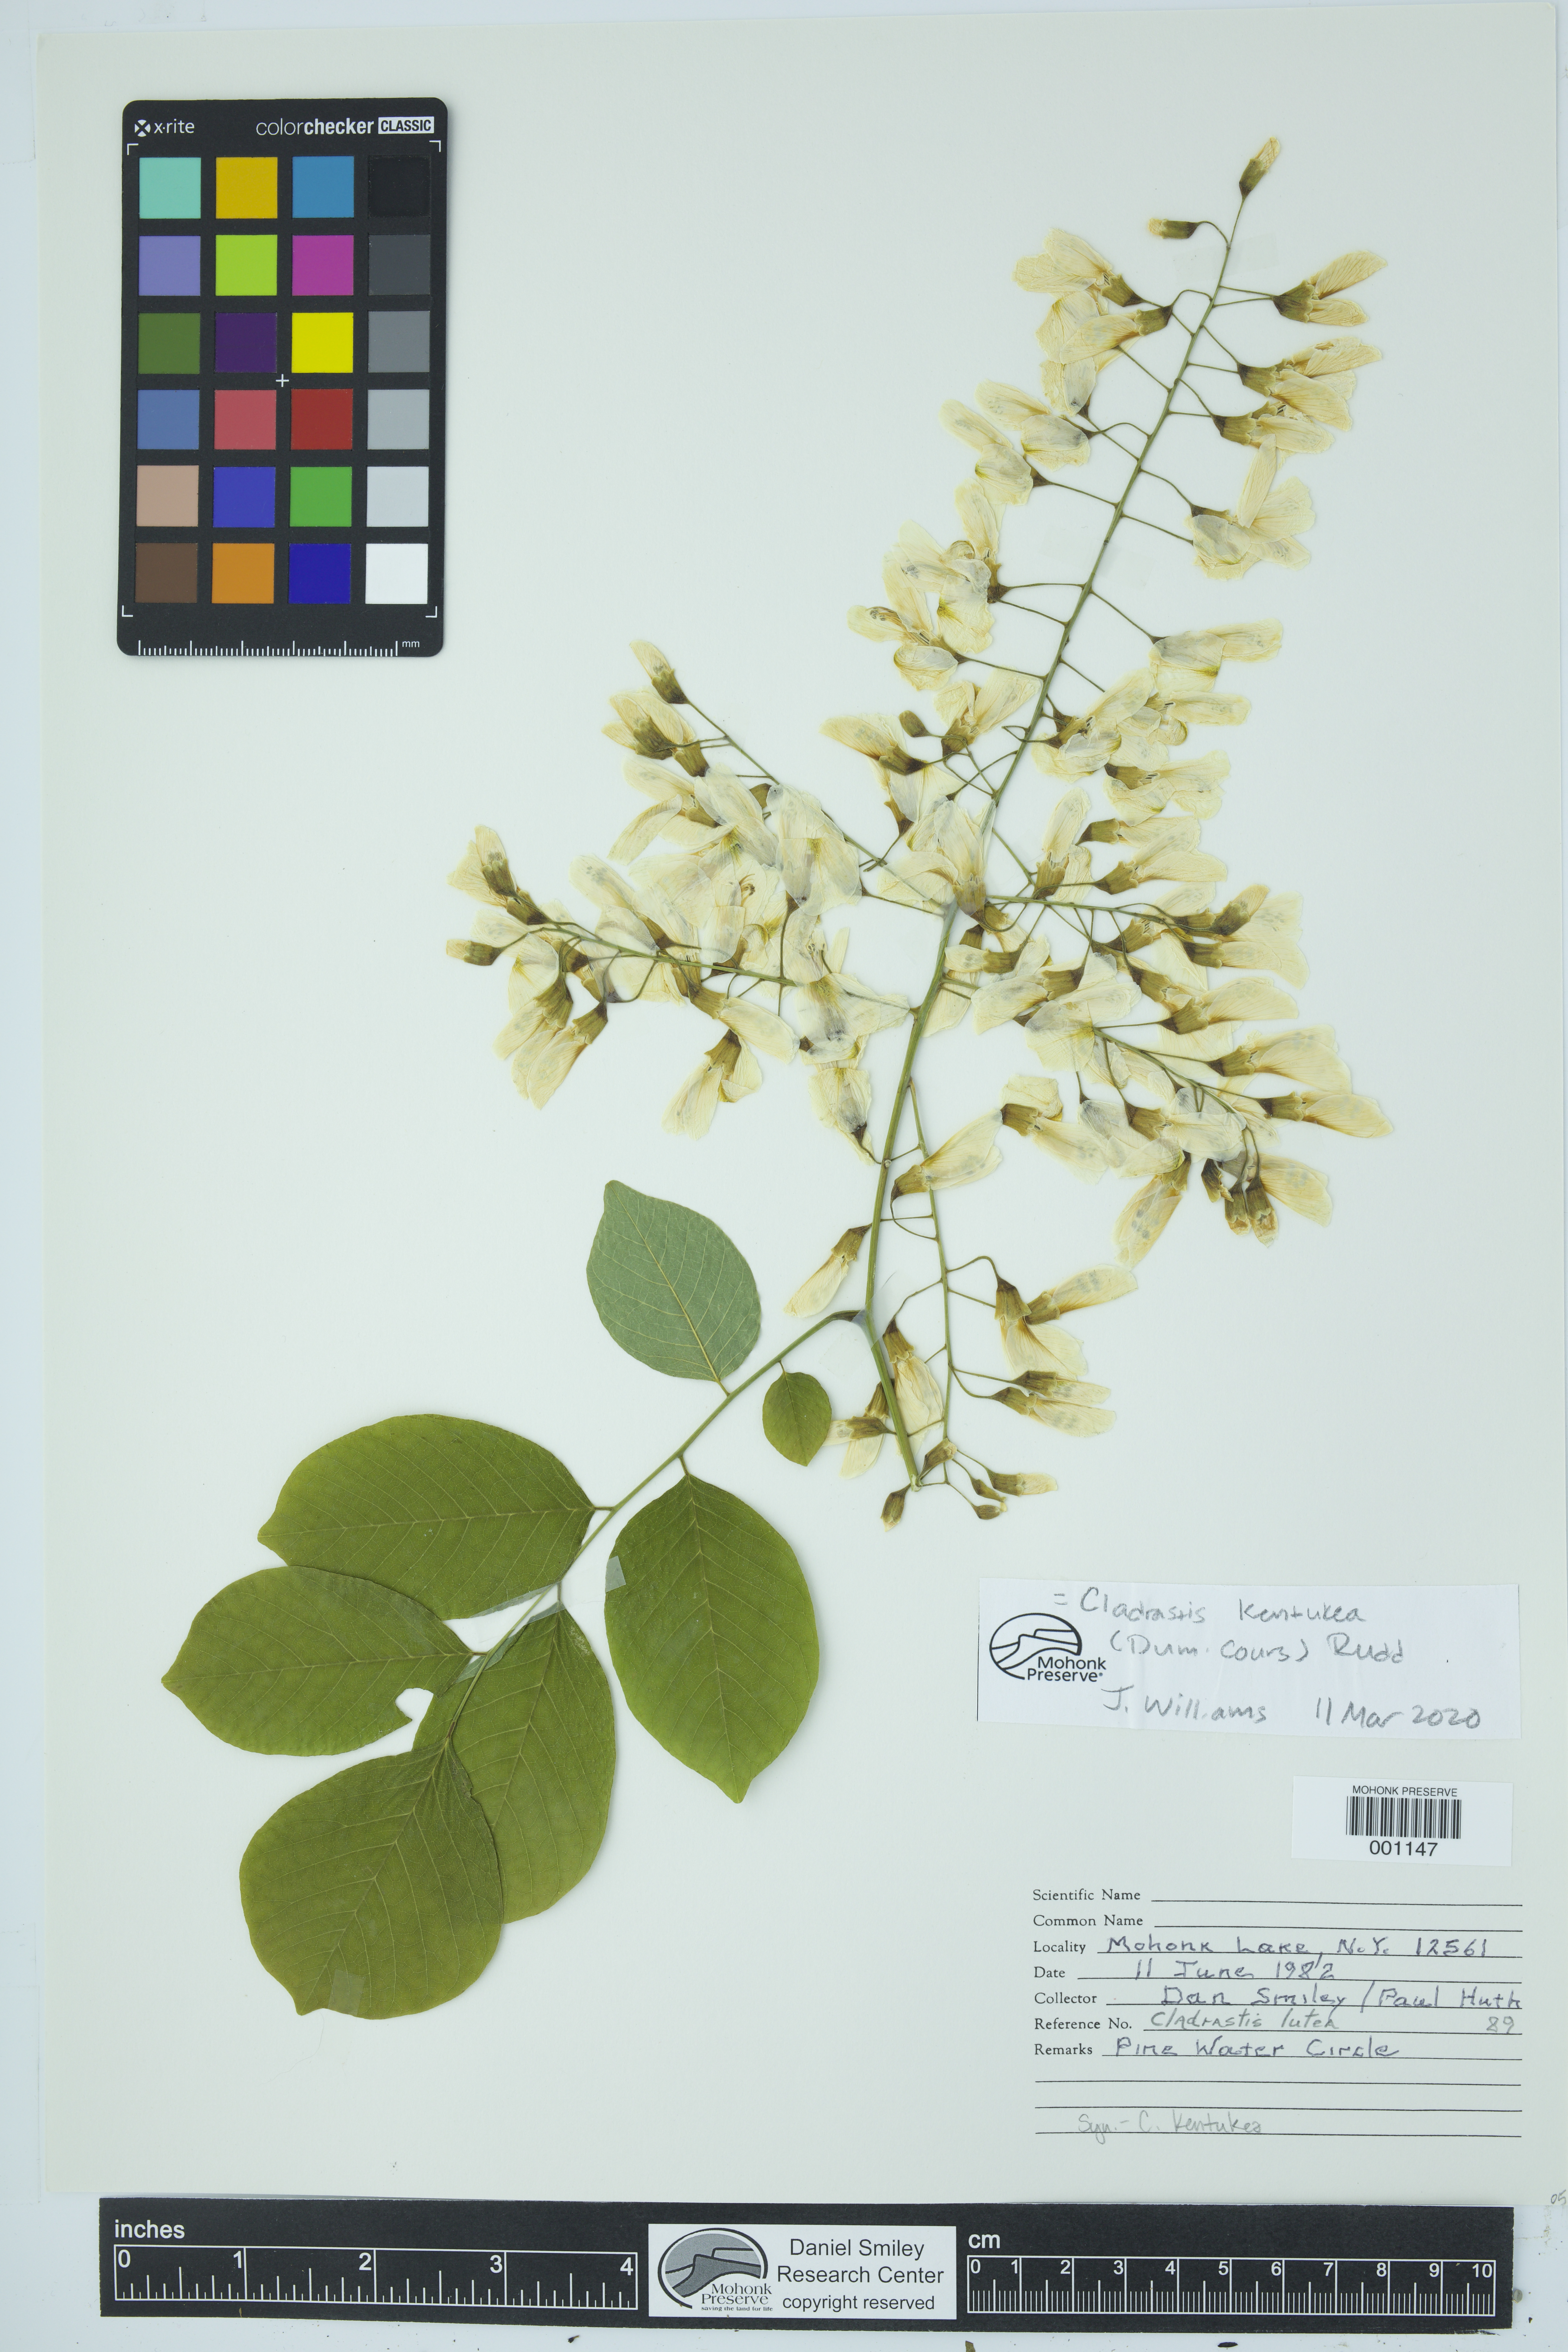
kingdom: Plantae
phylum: Tracheophyta
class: Magnoliopsida
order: Fabales
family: Fabaceae
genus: Cladrastis
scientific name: Cladrastis kentukea
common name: Kentucky yellow-wood
